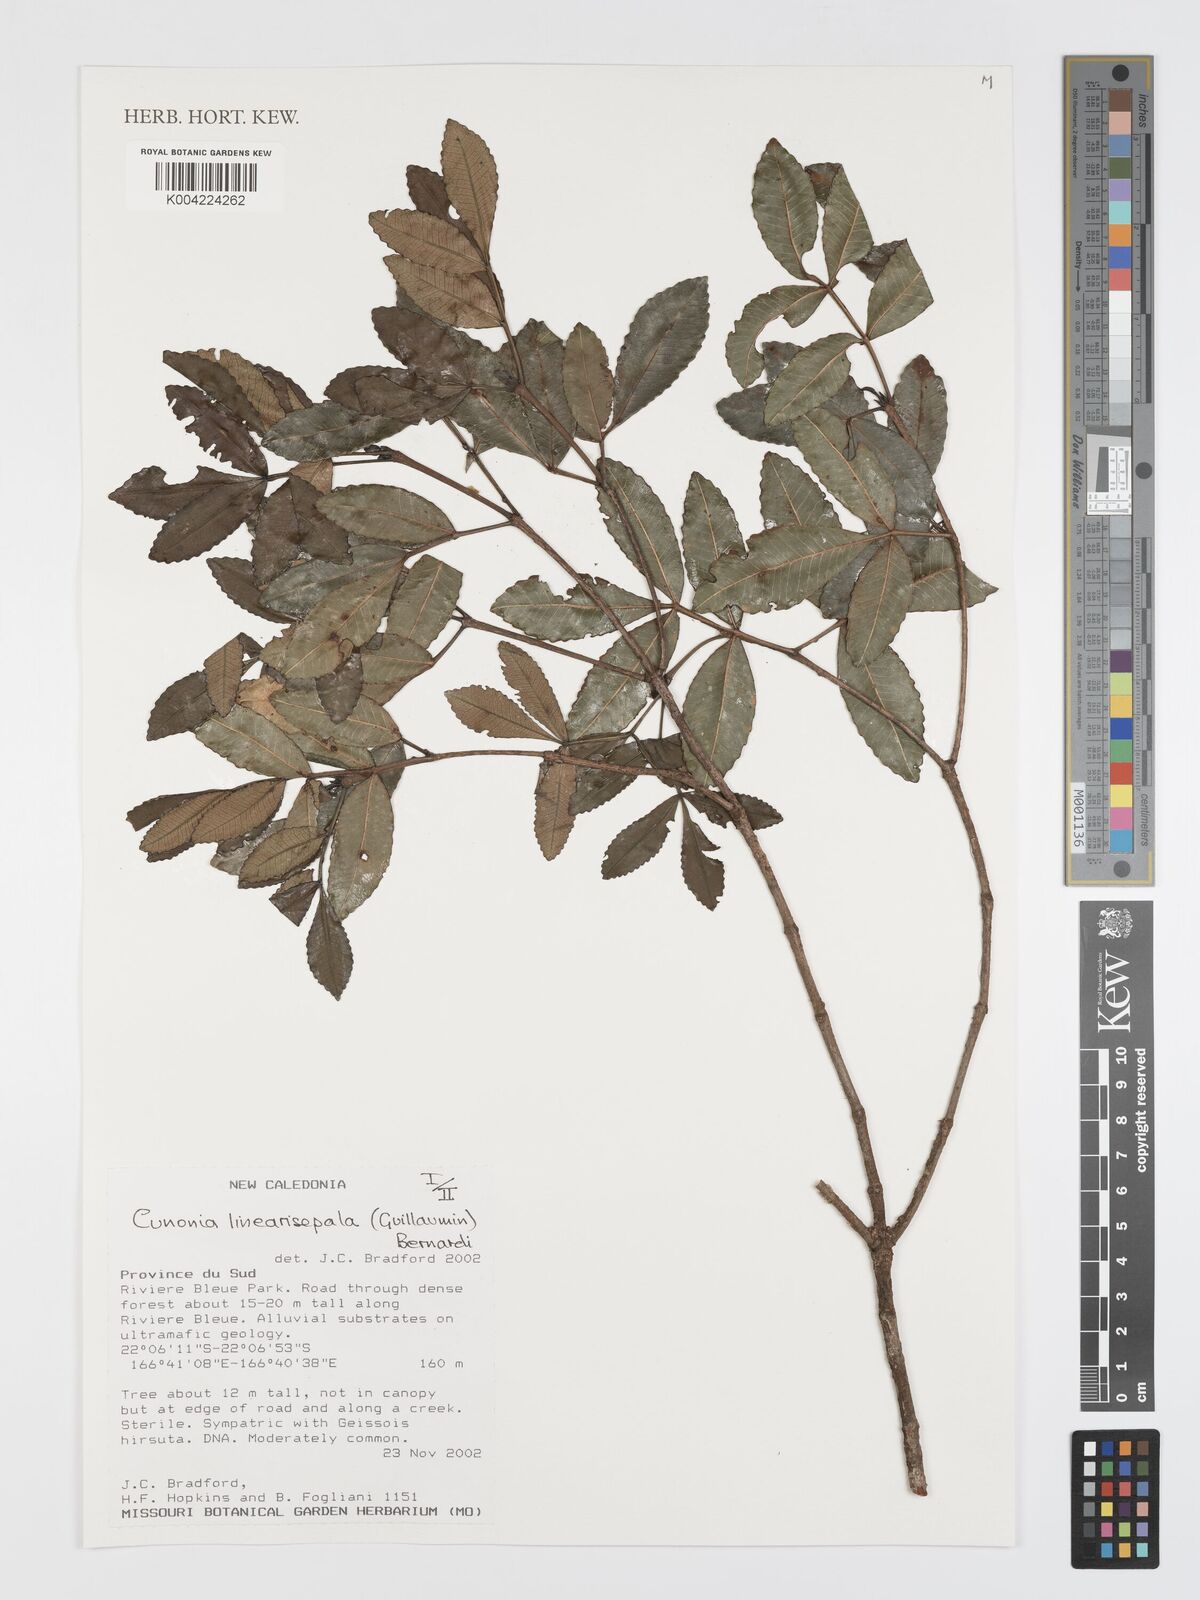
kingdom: Plantae
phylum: Tracheophyta
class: Magnoliopsida
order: Oxalidales
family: Cunoniaceae
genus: Cunonia
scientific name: Cunonia linearisepala
